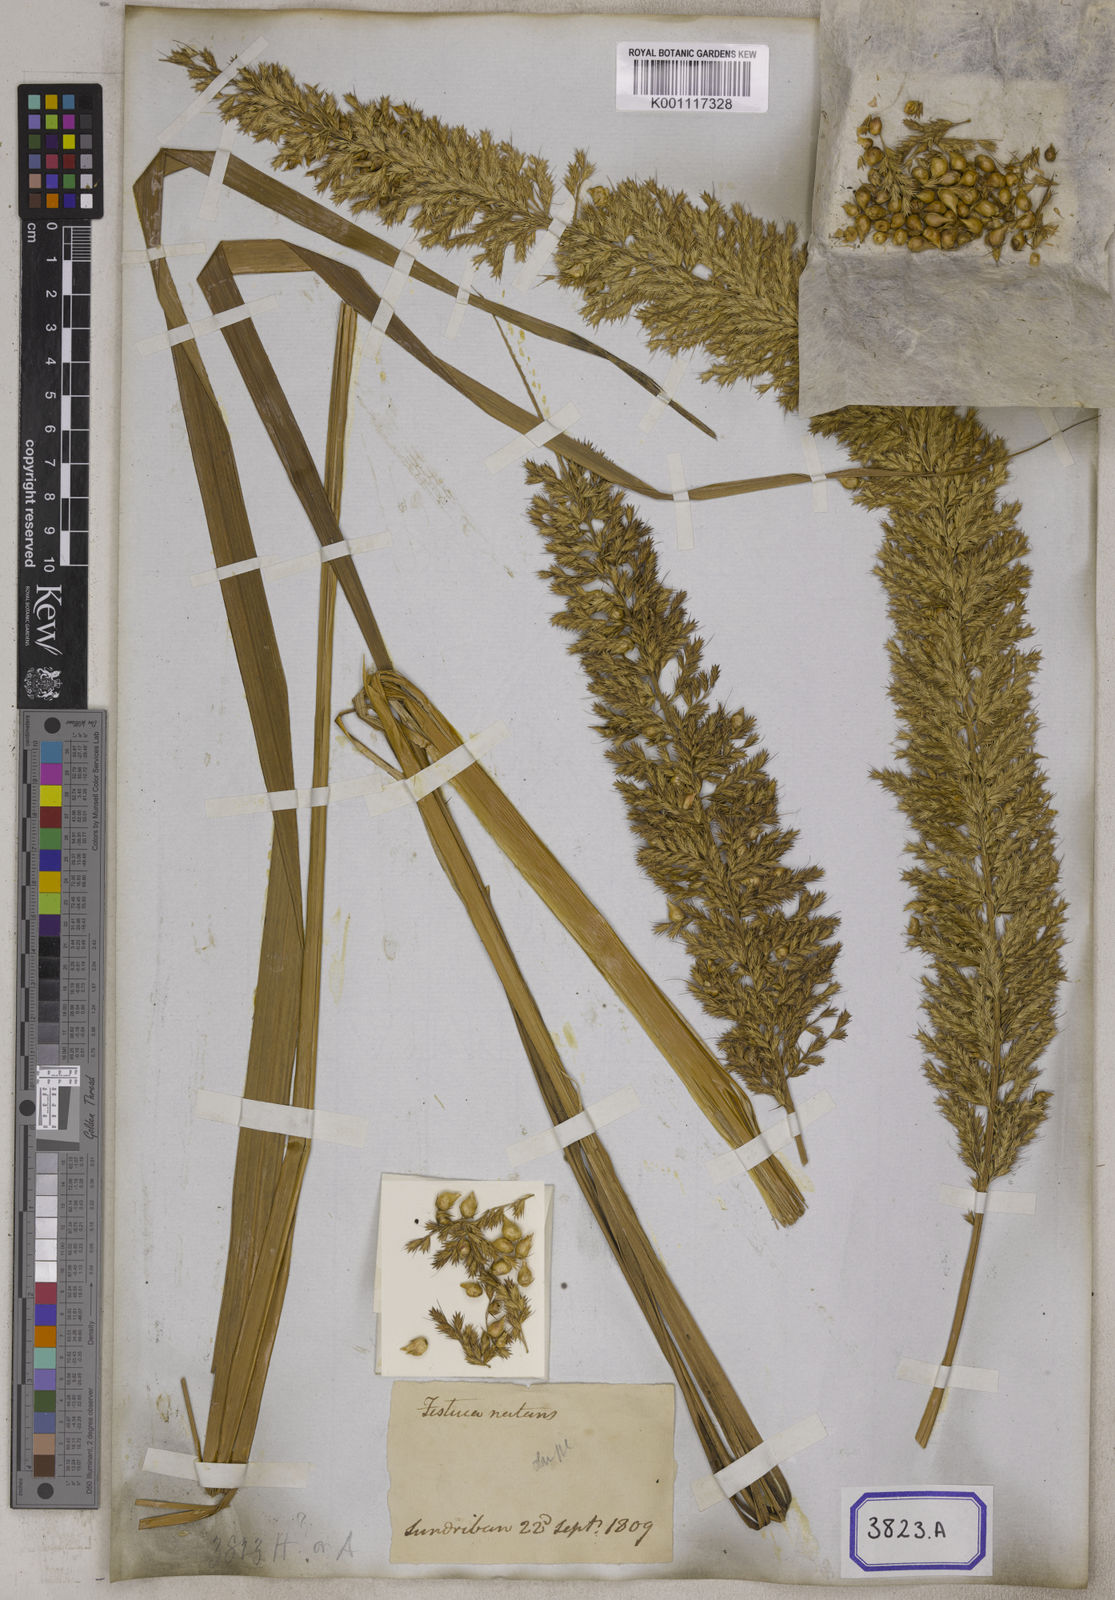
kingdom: Plantae
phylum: Tracheophyta
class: Liliopsida
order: Poales
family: Poaceae
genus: Eragrostis
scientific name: Eragrostis
